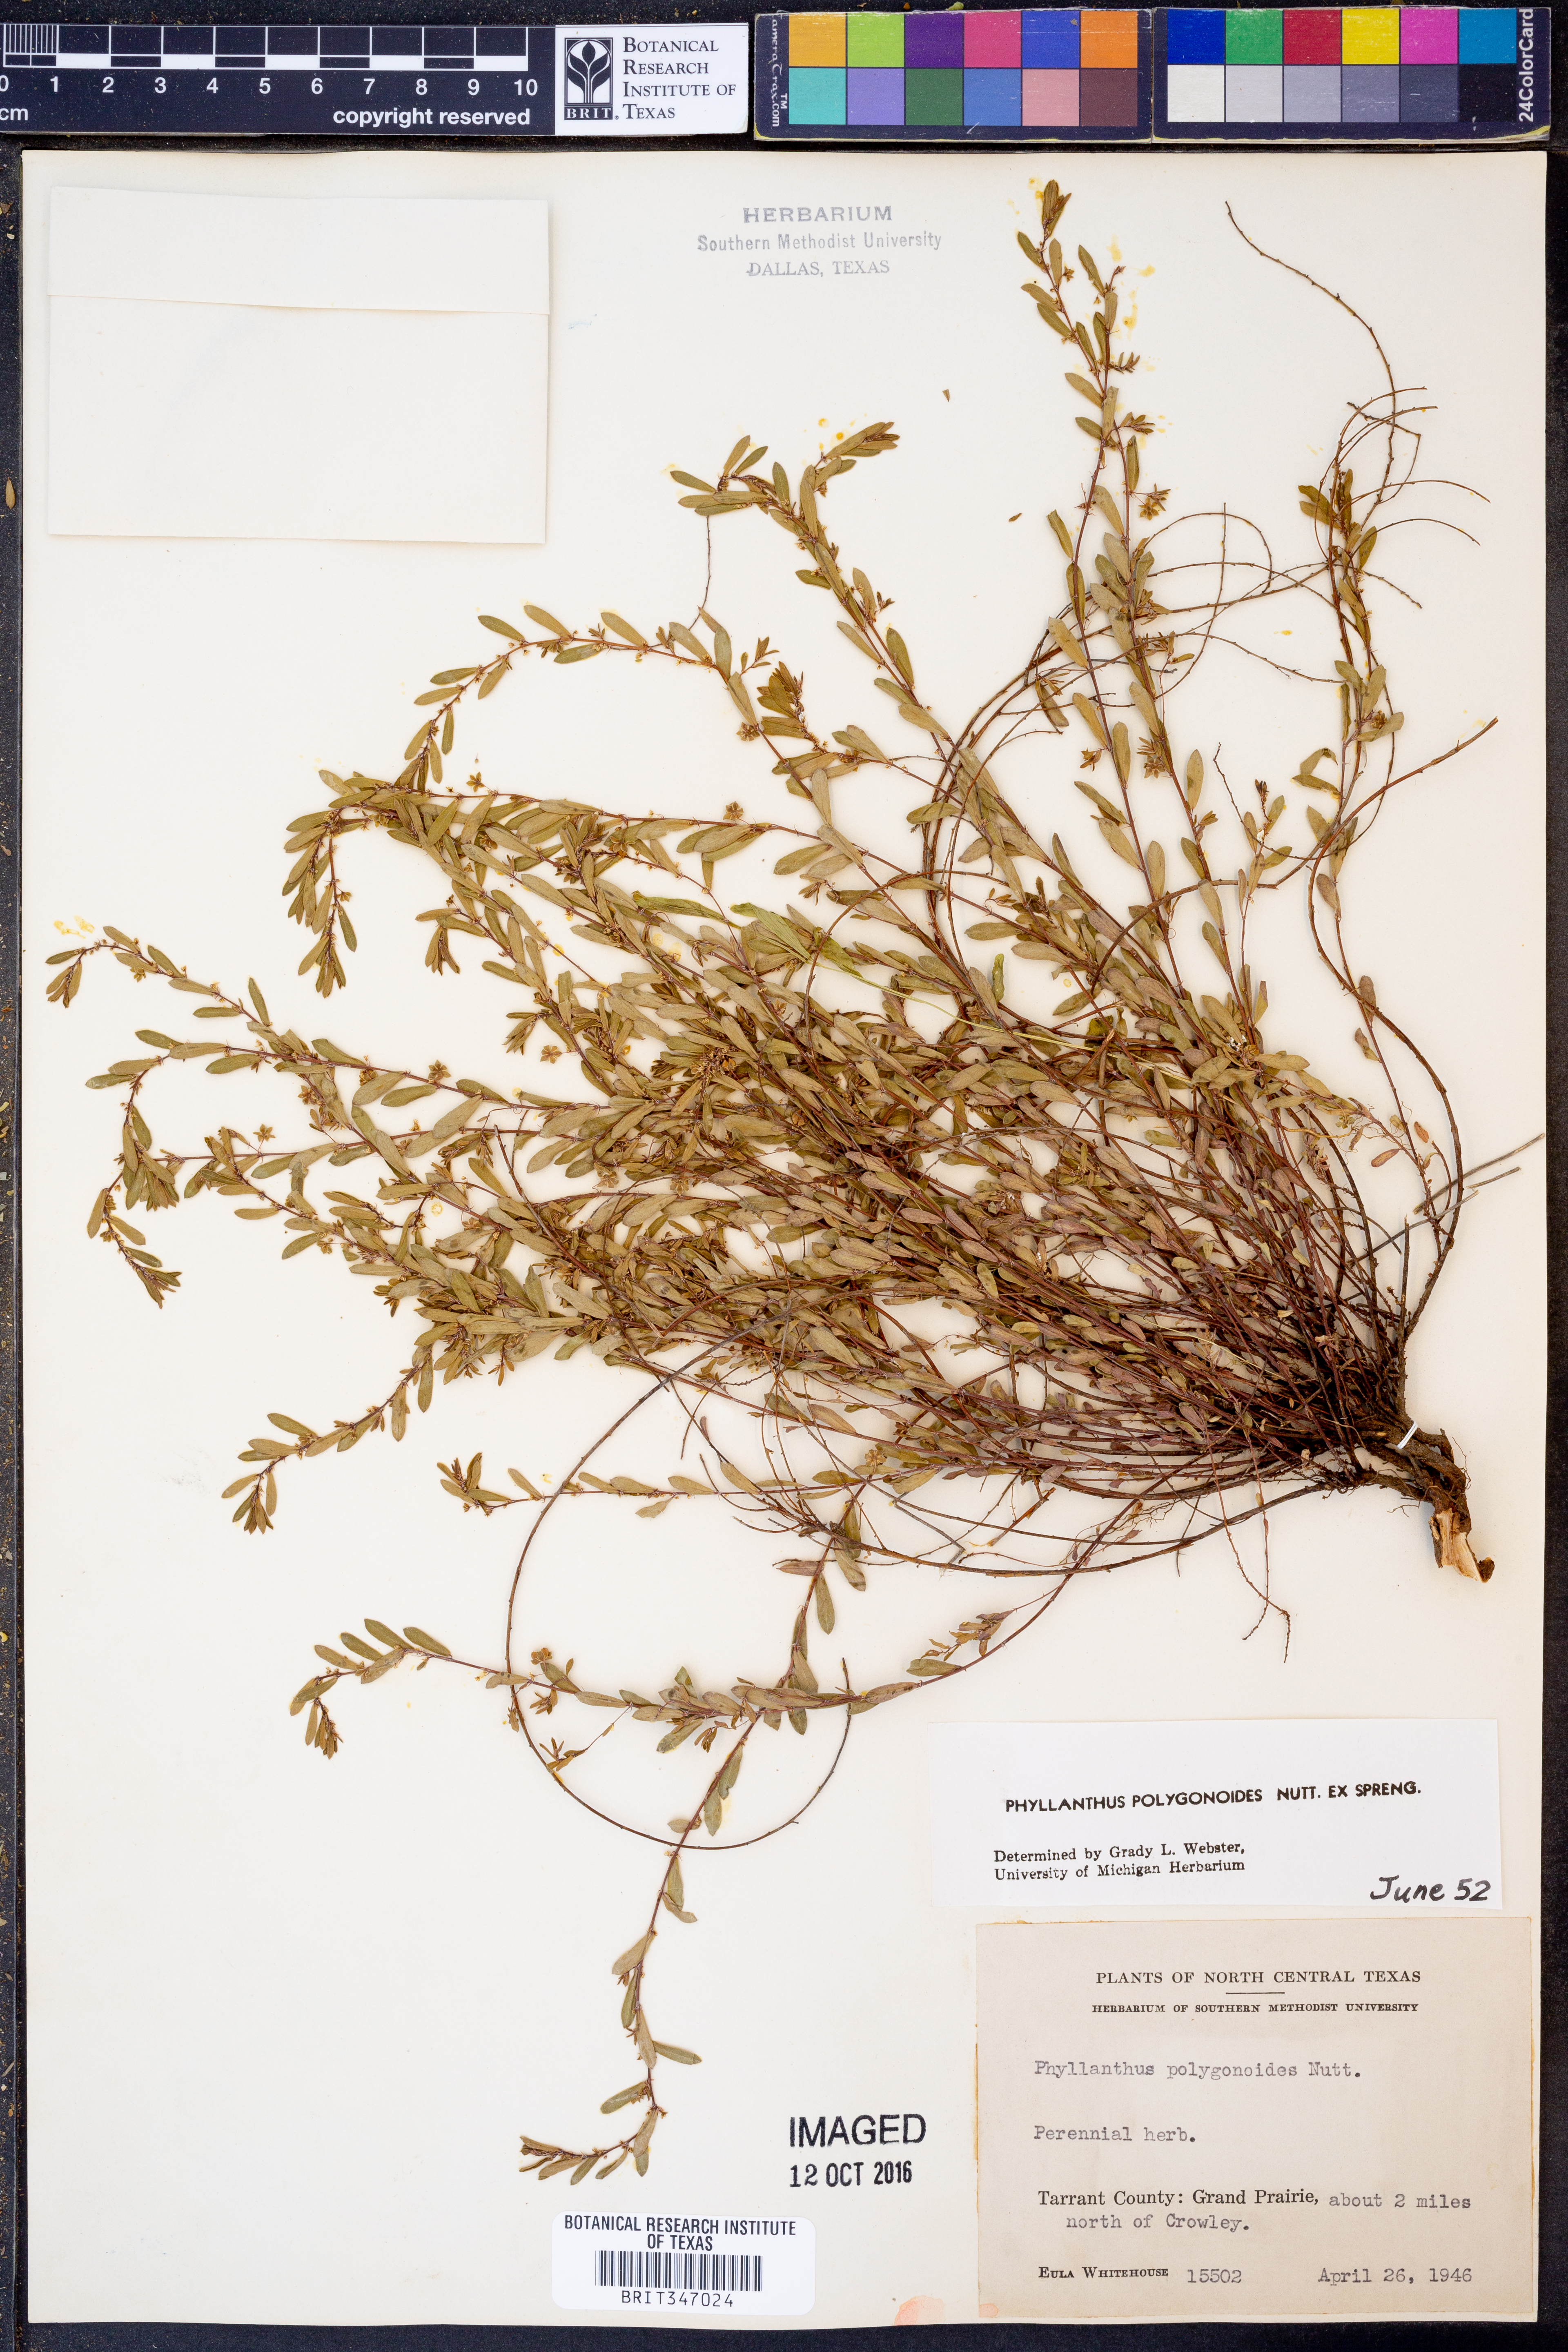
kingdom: Plantae
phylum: Tracheophyta
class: Magnoliopsida
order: Malpighiales
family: Phyllanthaceae
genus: Phyllanthus
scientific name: Phyllanthus polygonoides
